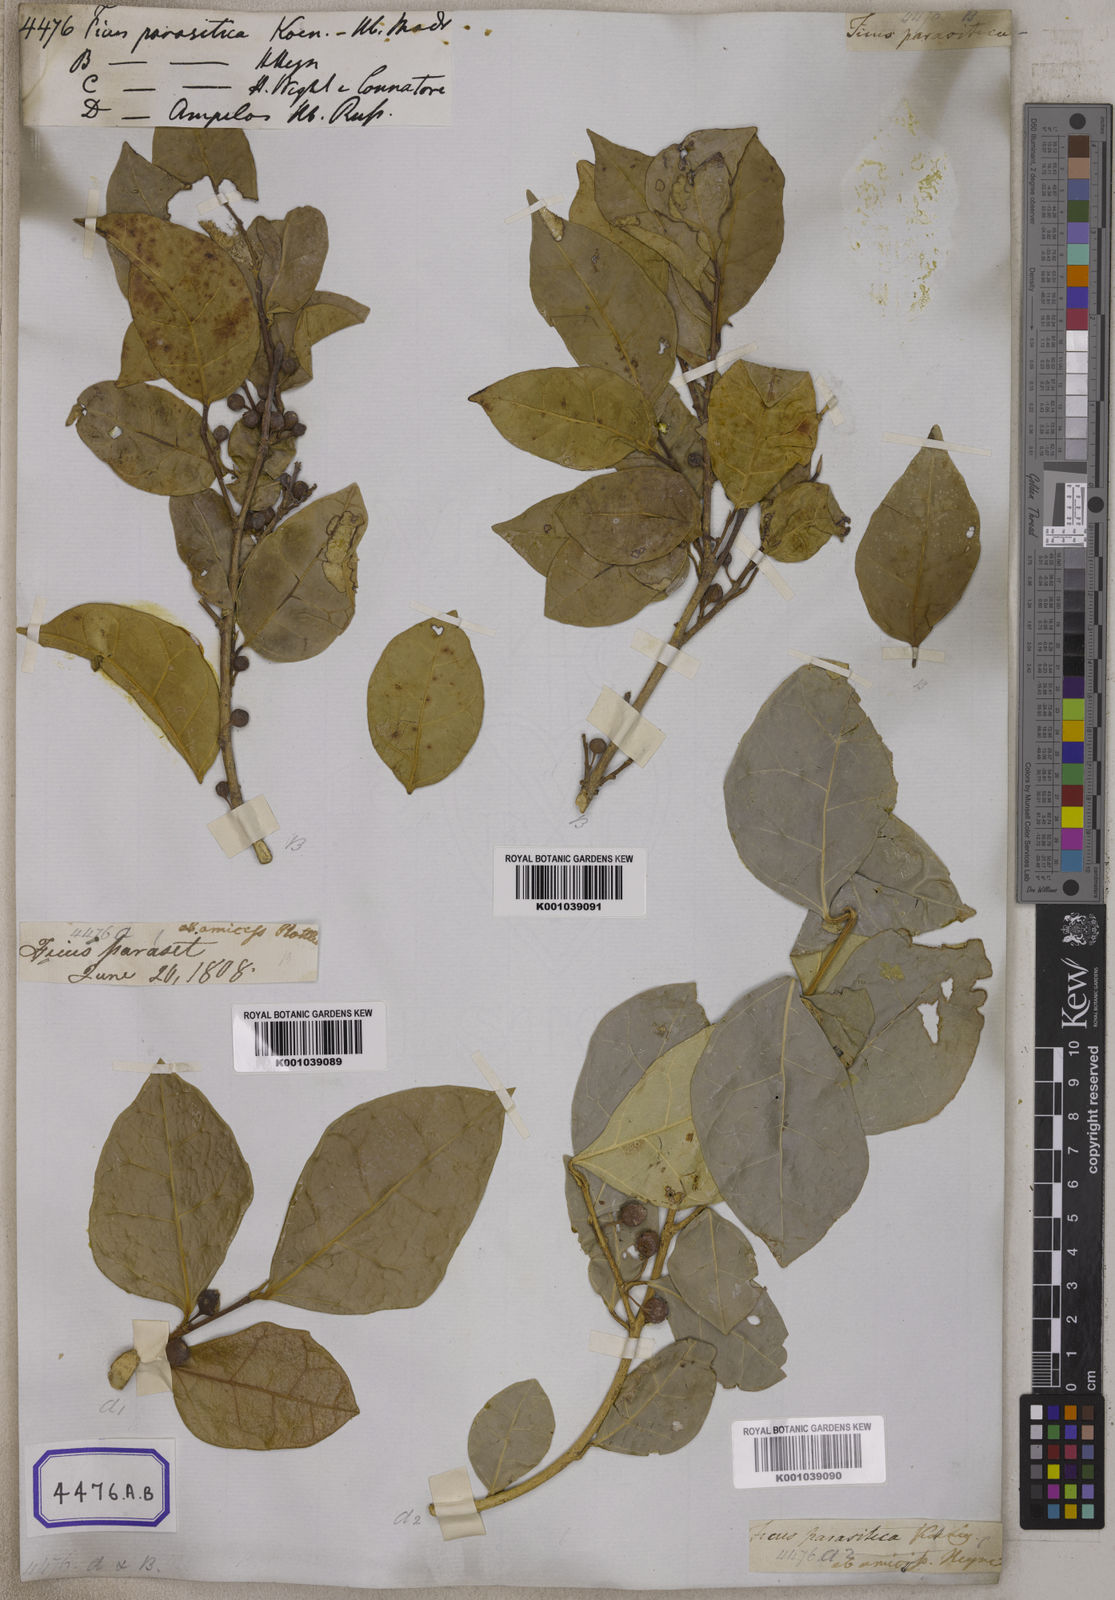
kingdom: Plantae
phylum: Tracheophyta
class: Magnoliopsida
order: Rosales
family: Moraceae
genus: Ficus
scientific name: Ficus tinctoria
